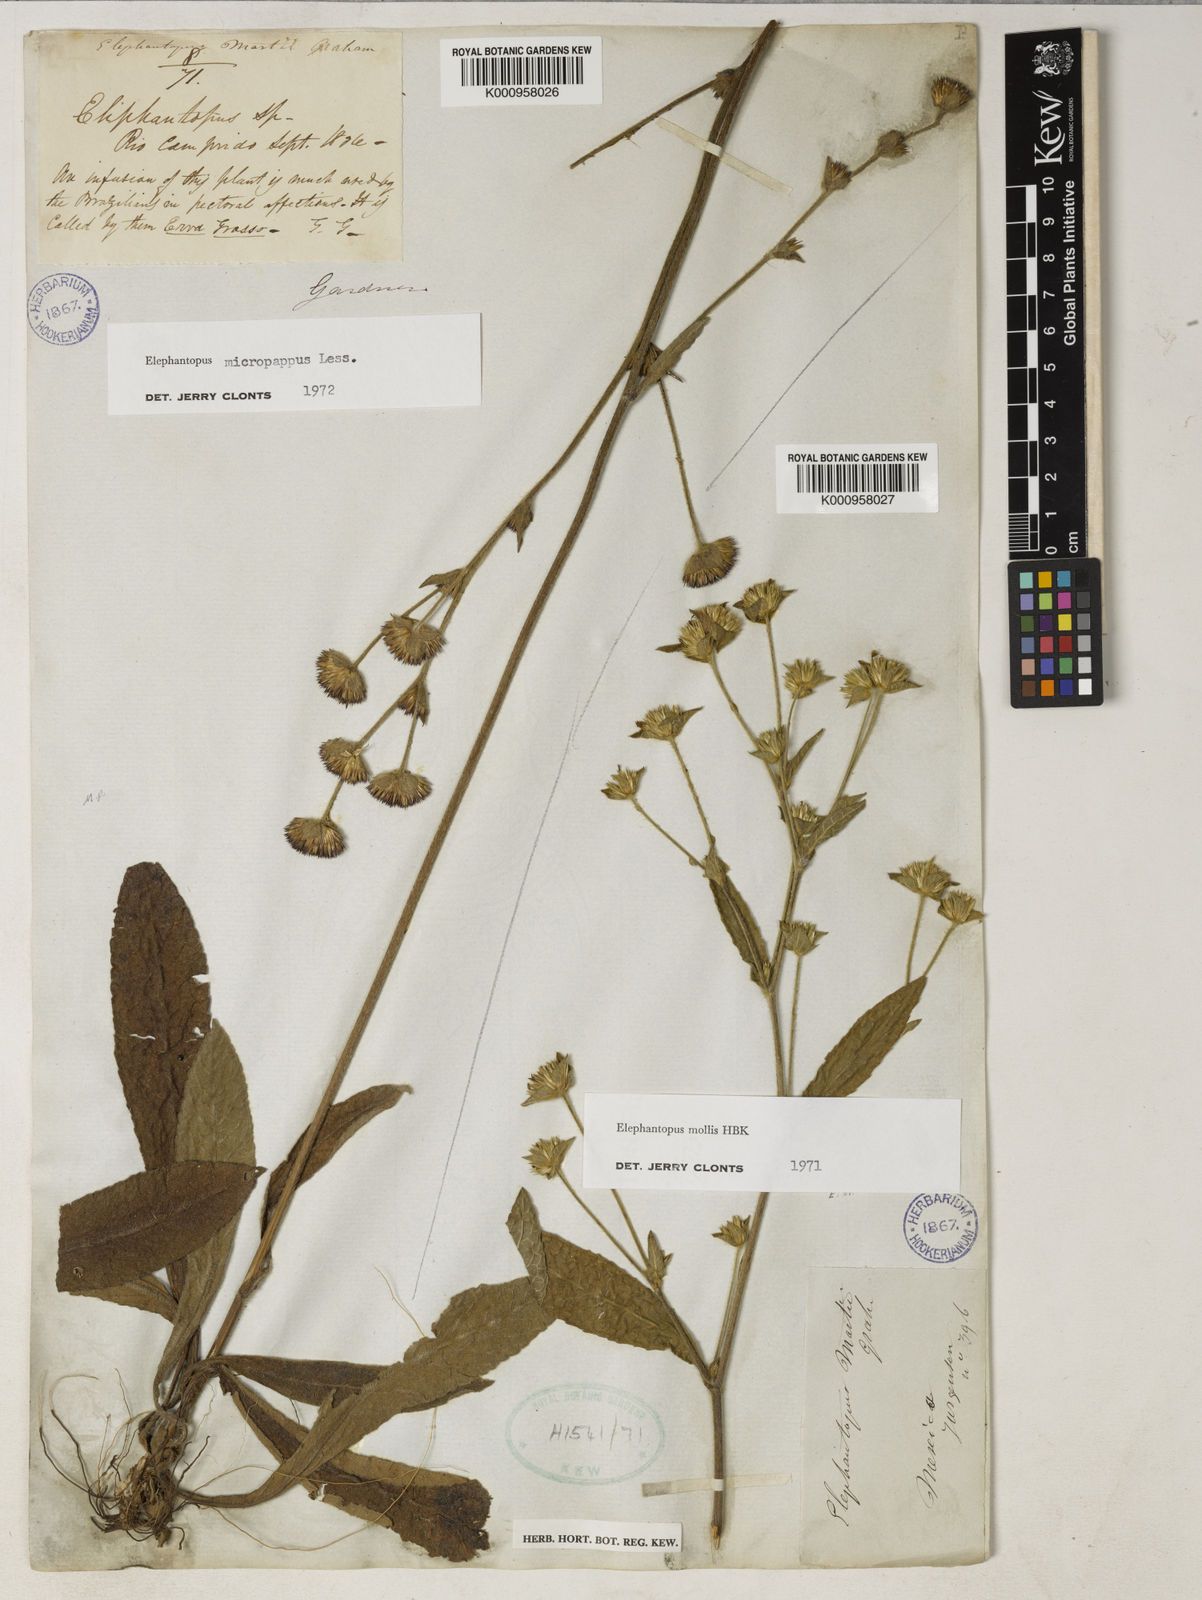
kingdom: Plantae
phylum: Tracheophyta
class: Magnoliopsida
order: Asterales
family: Asteraceae
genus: Elephantopus
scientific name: Elephantopus micropappus
